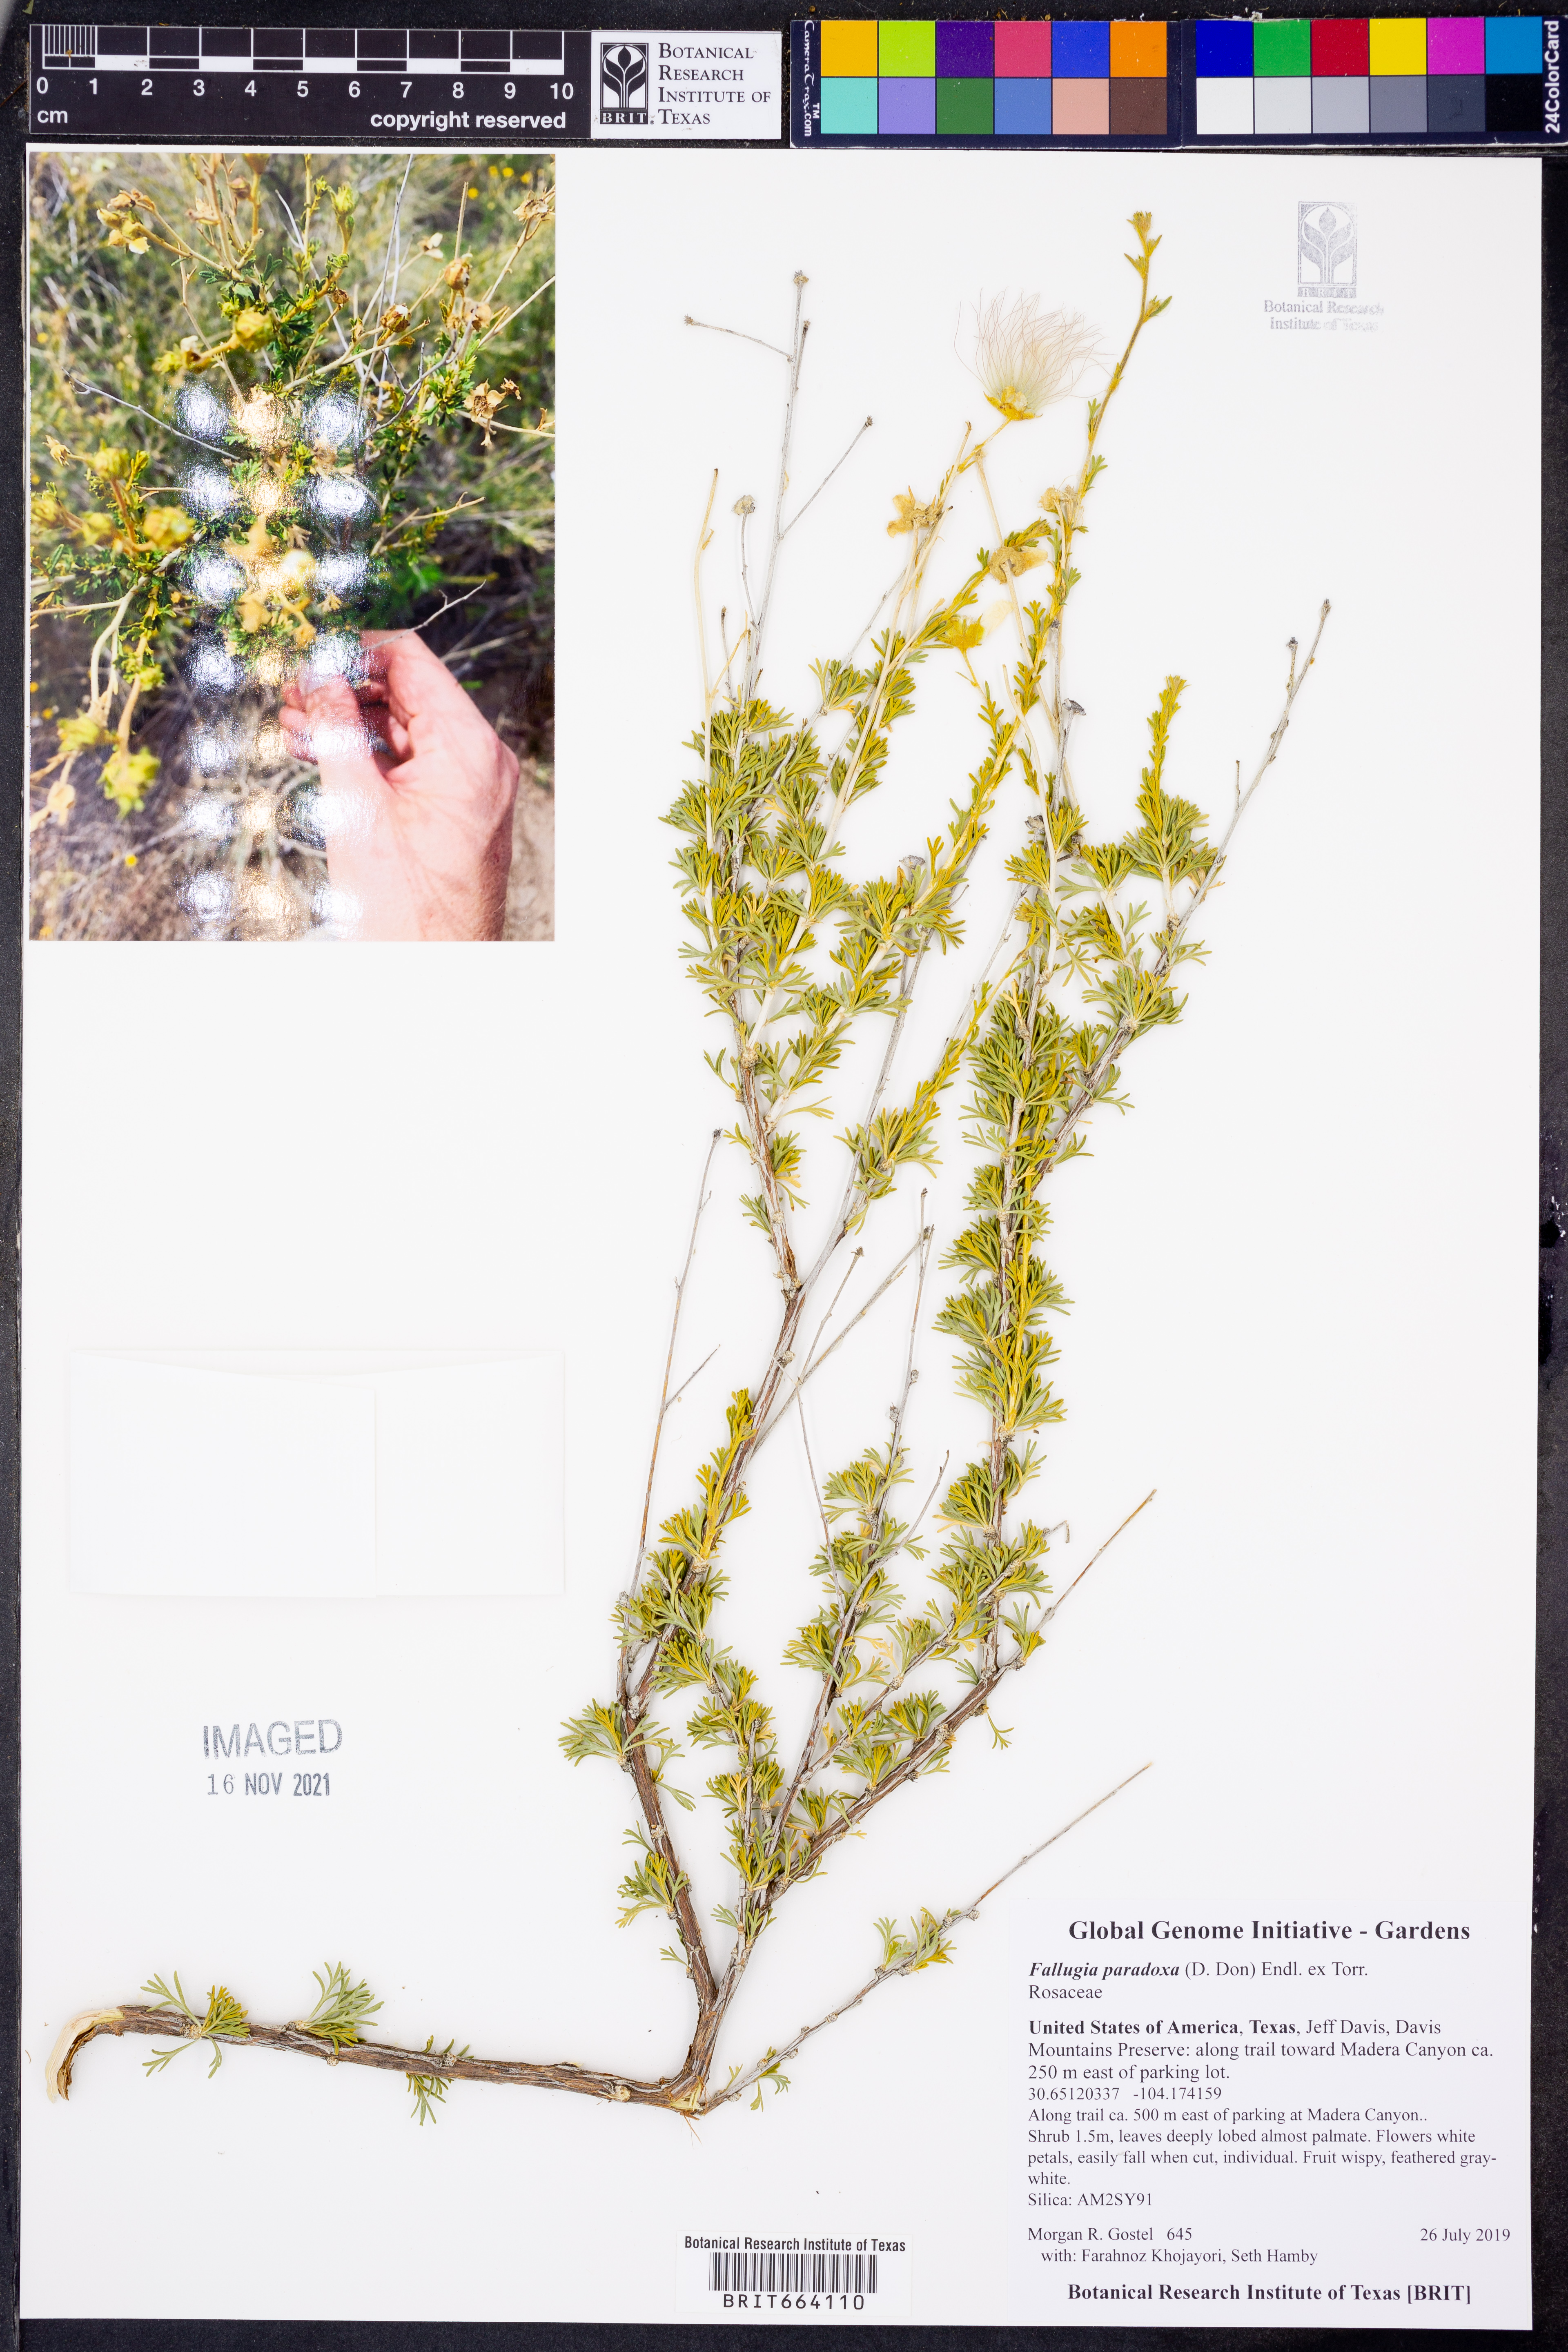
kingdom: Plantae
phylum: Tracheophyta
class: Magnoliopsida
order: Rosales
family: Rosaceae
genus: Fallugia
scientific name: Fallugia paradoxa
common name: Apache-plume
